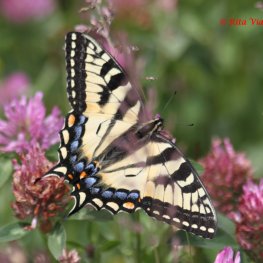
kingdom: Animalia
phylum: Arthropoda
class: Insecta
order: Lepidoptera
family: Papilionidae
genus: Pterourus
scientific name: Pterourus canadensis
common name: Canadian Tiger Swallowtail
